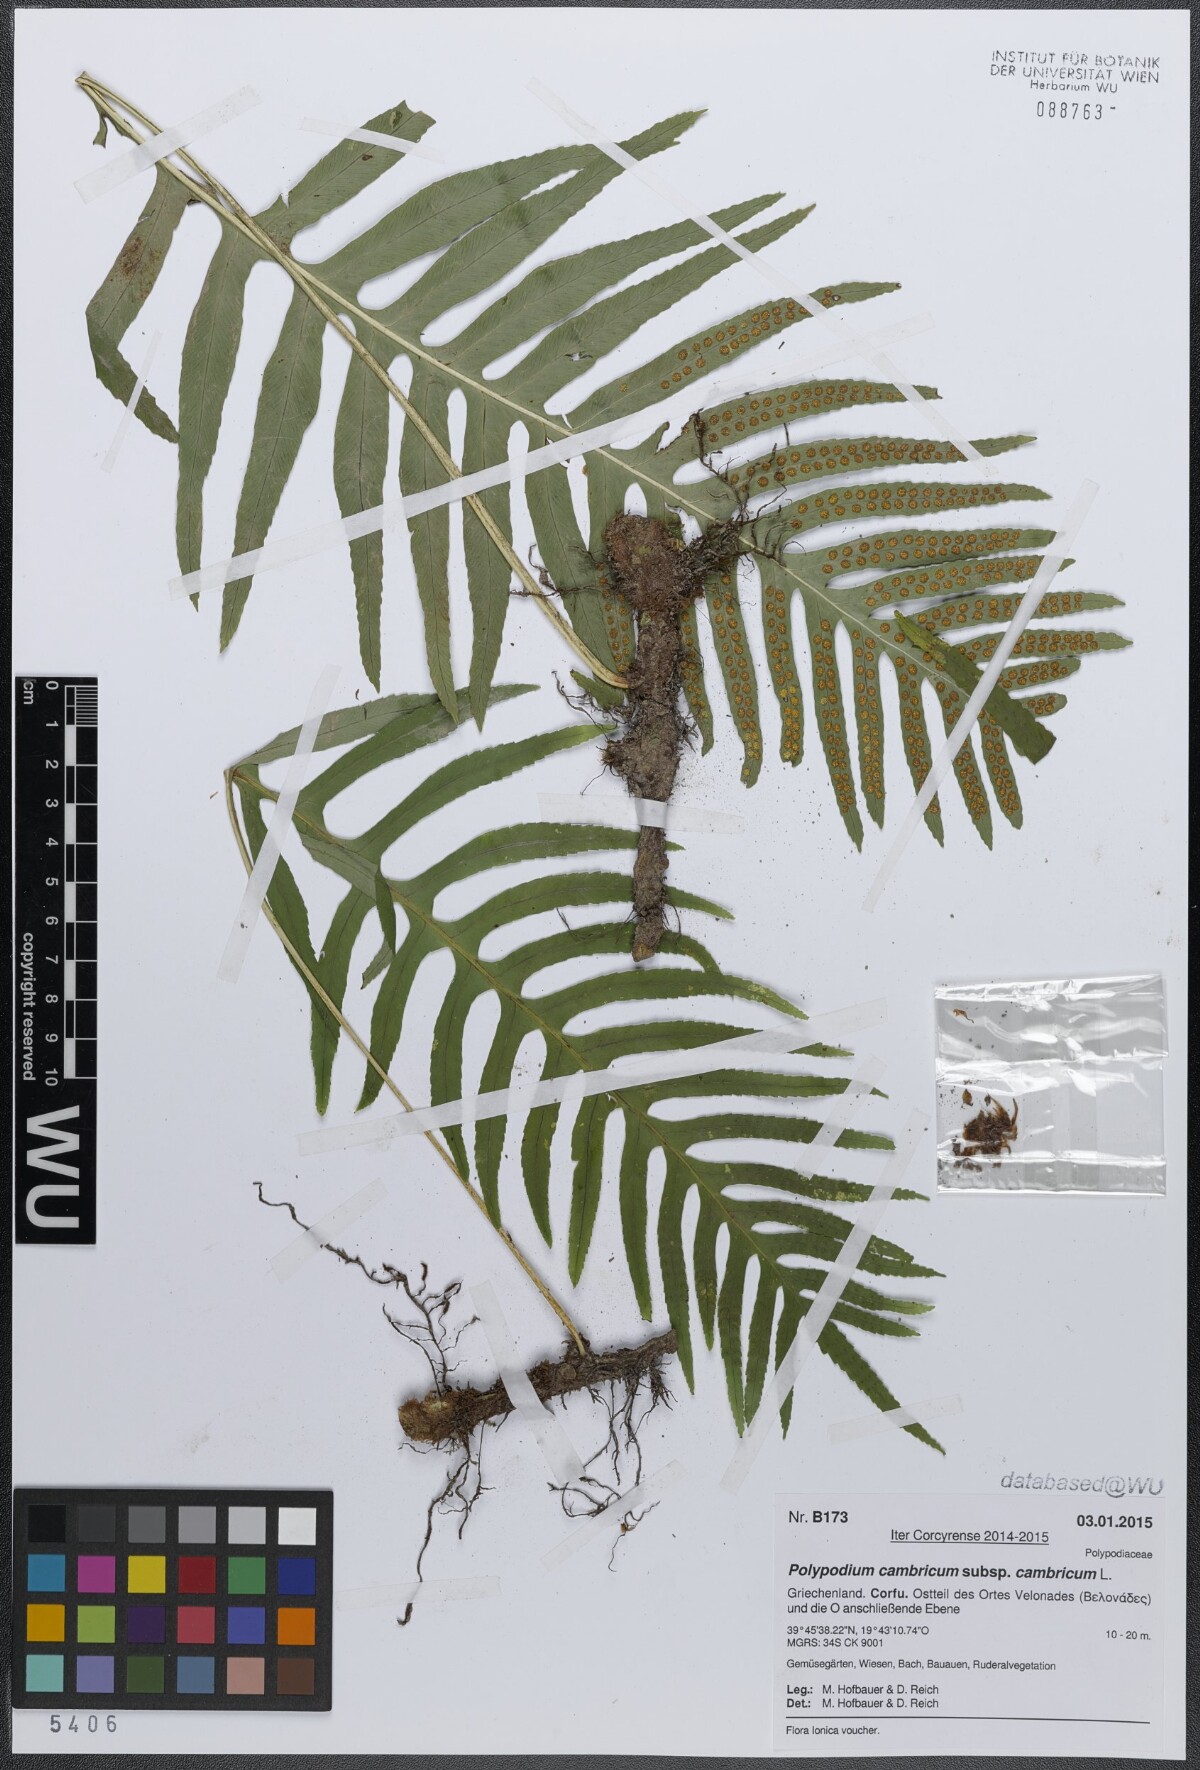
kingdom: Plantae
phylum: Tracheophyta
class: Polypodiopsida
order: Polypodiales
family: Polypodiaceae
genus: Polypodium
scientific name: Polypodium cambricum
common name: Southern polypody
